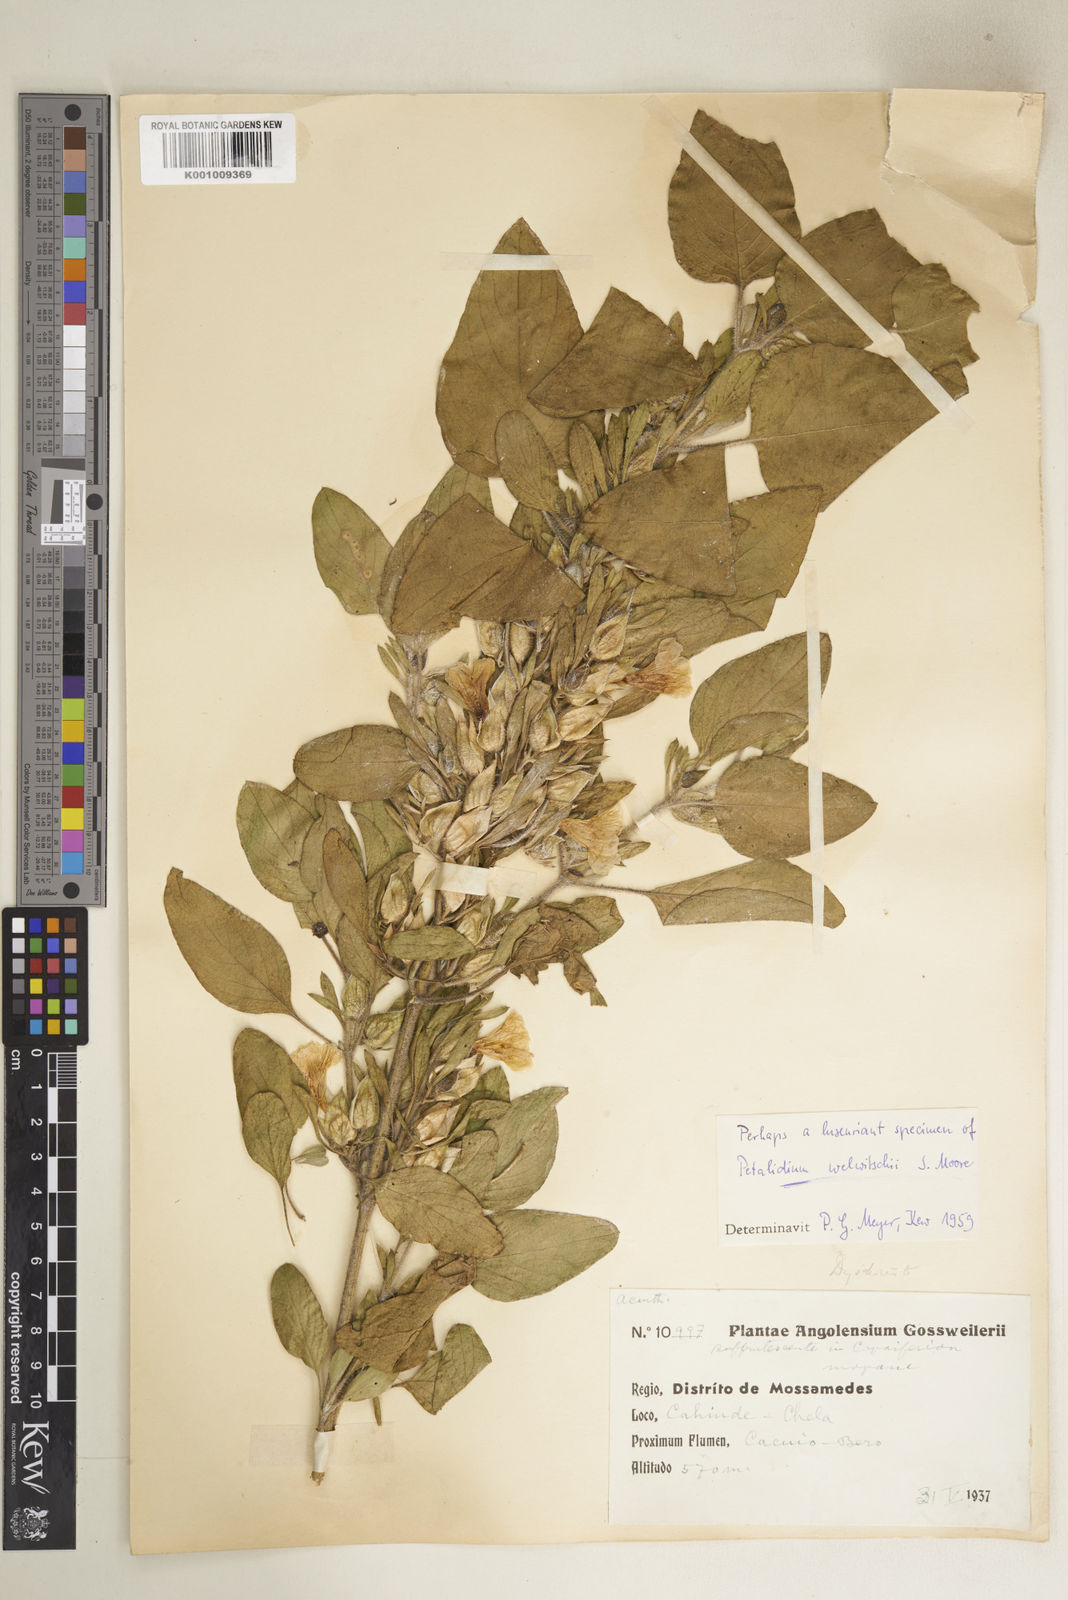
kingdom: Plantae
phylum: Tracheophyta
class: Magnoliopsida
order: Lamiales
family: Acanthaceae
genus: Petalidium
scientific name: Petalidium welwitschii
